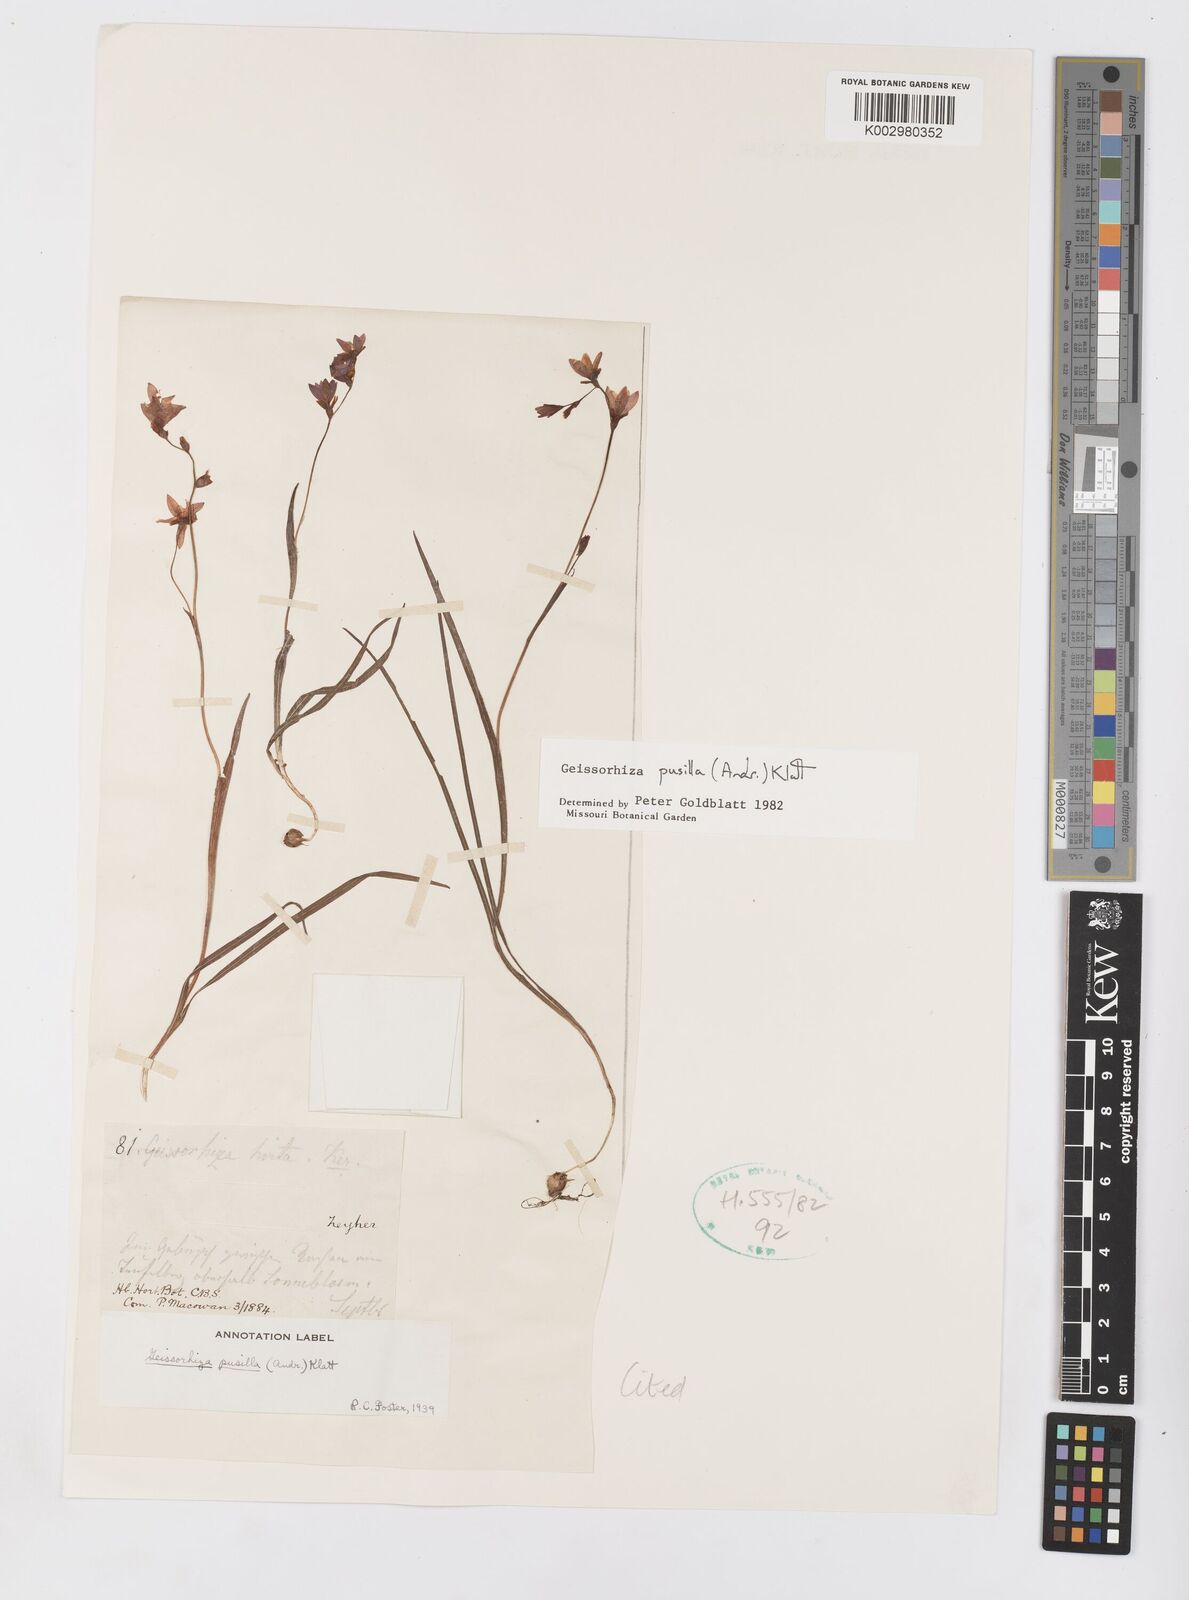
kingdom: Plantae
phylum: Tracheophyta
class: Liliopsida
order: Asparagales
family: Iridaceae
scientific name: Iridaceae
